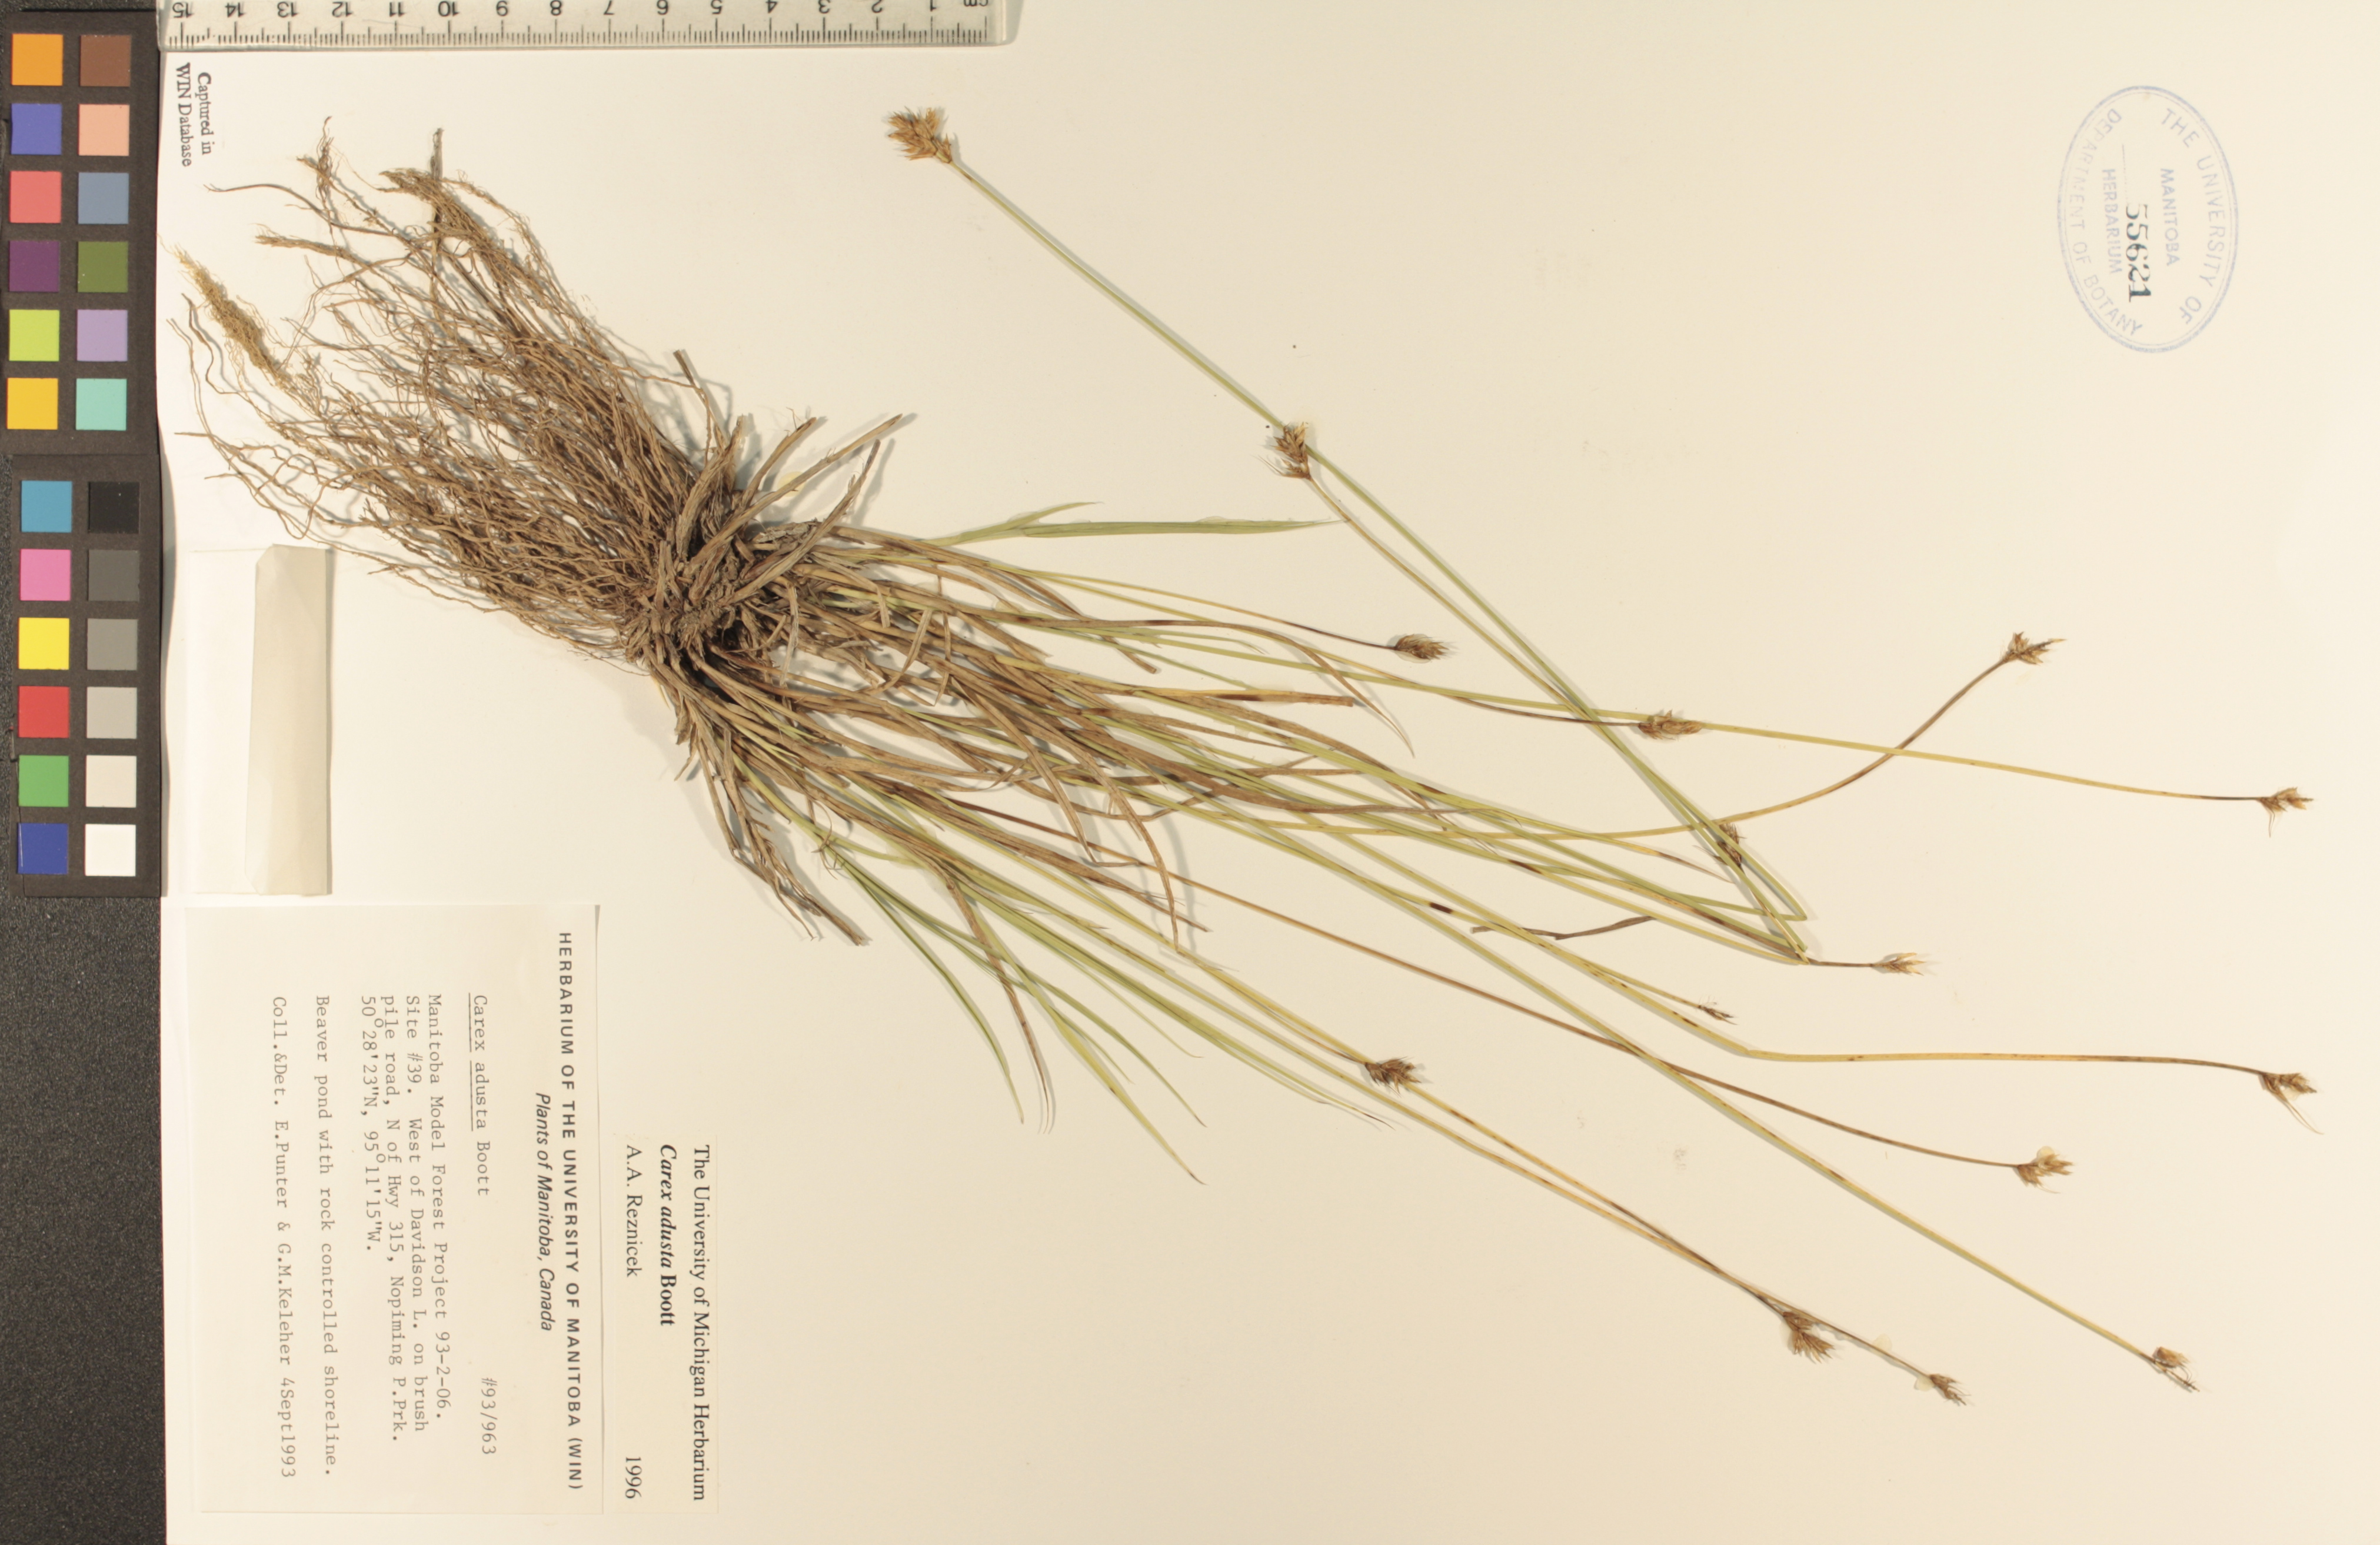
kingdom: Plantae
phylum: Tracheophyta
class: Liliopsida
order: Poales
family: Cyperaceae
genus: Carex
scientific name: Carex adusta
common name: Browned sedge
